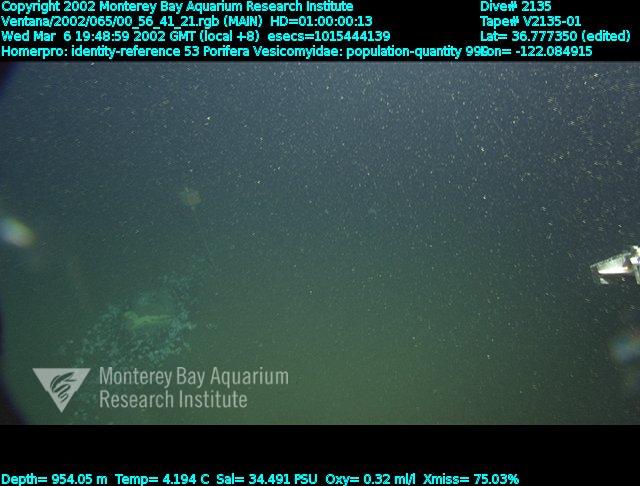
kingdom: Animalia
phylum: Porifera
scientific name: Porifera
